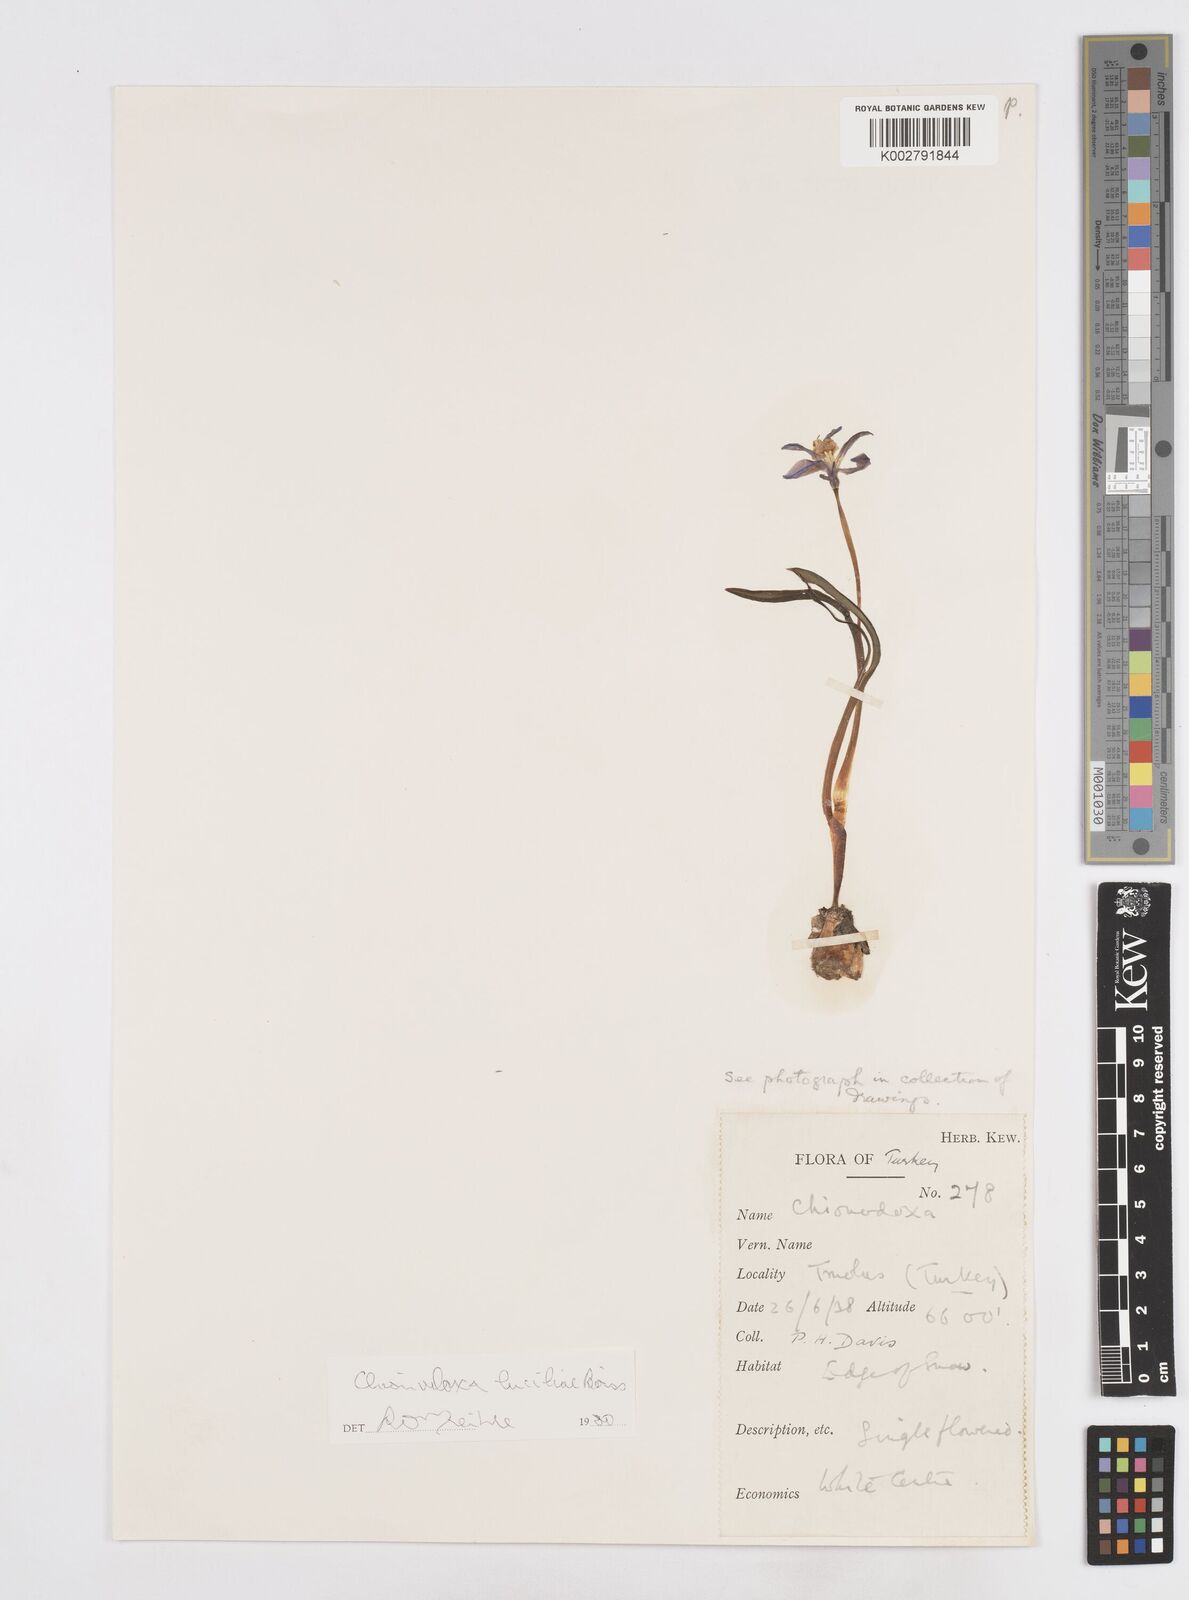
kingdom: Plantae
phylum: Tracheophyta
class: Liliopsida
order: Asparagales
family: Asparagaceae
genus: Scilla
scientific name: Scilla luciliae
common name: Boissier's glory-of-the-snow
